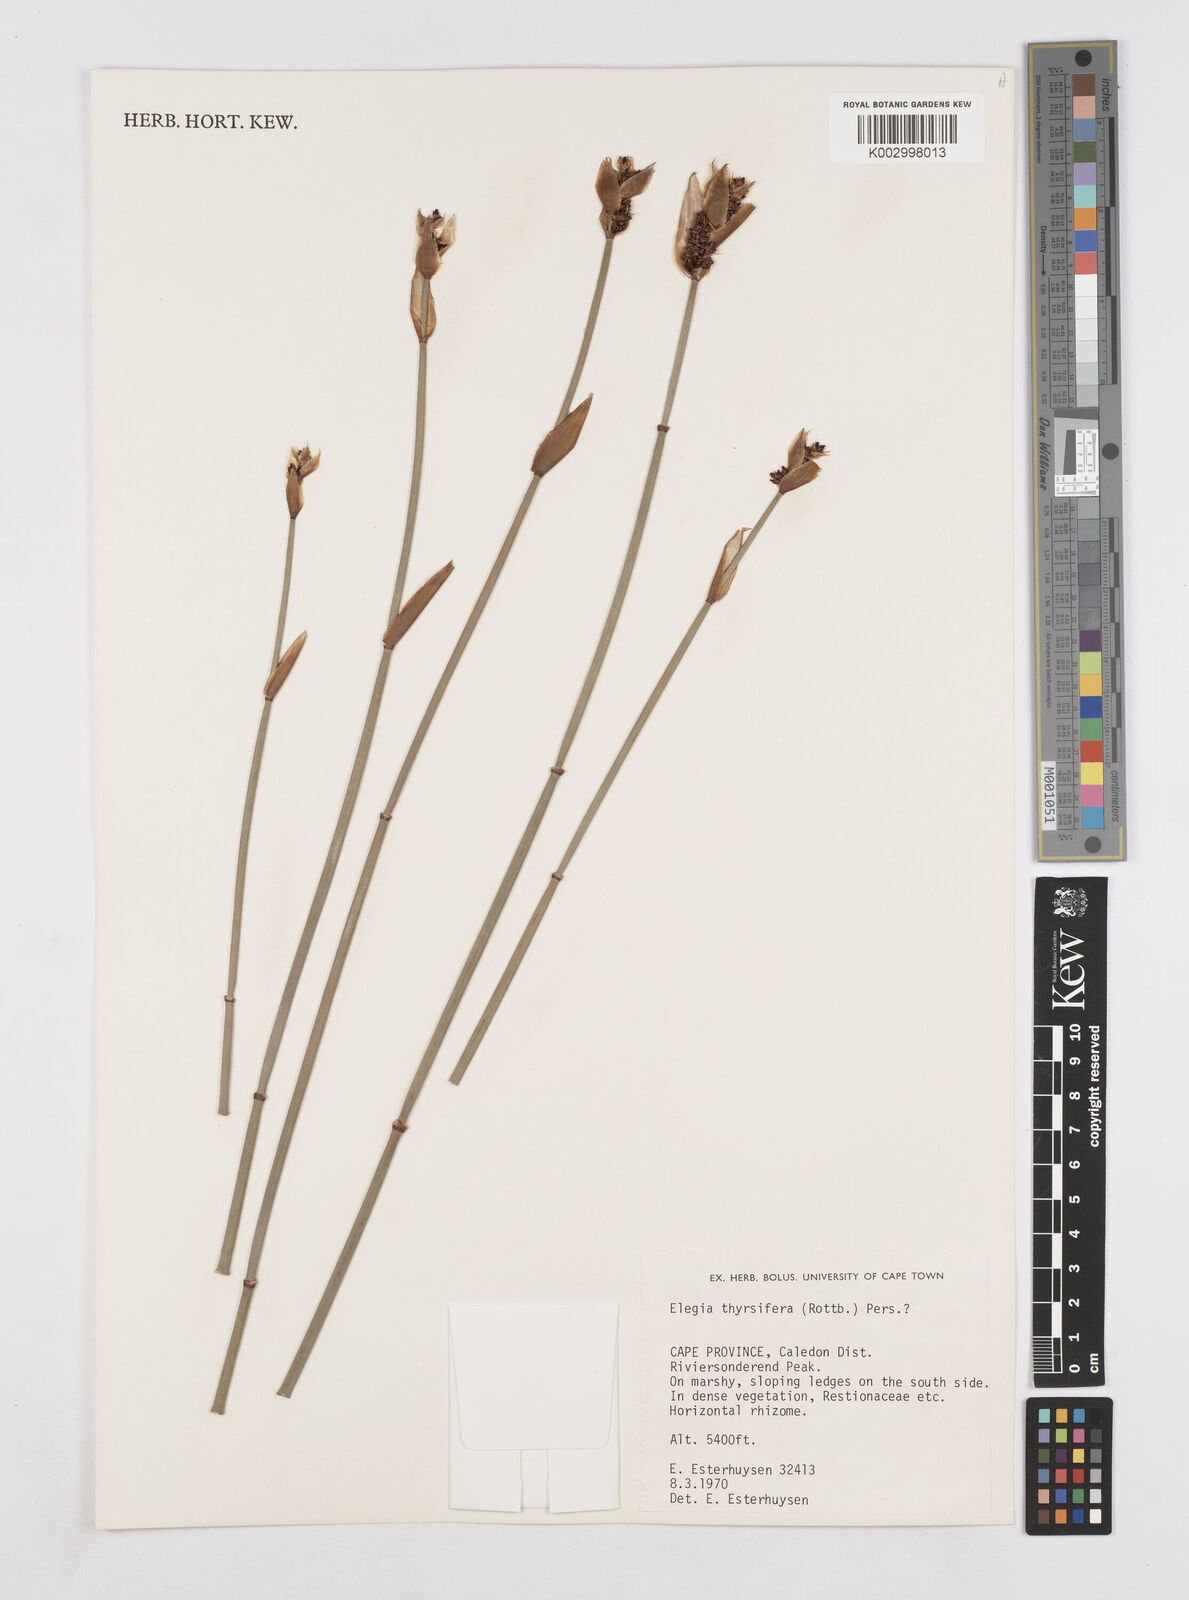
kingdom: Plantae
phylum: Tracheophyta
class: Liliopsida
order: Poales
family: Restionaceae
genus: Elegia
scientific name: Elegia thyrsifera
